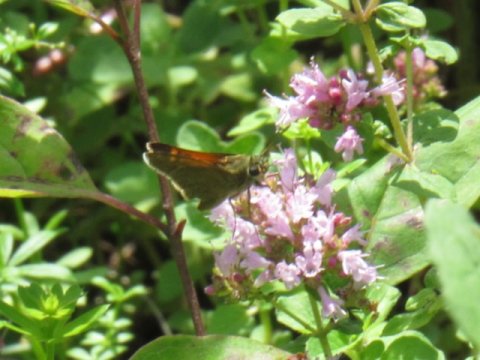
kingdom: Animalia
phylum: Arthropoda
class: Insecta
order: Lepidoptera
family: Hesperiidae
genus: Polites
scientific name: Polites themistocles
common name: Tawny-edged Skipper
